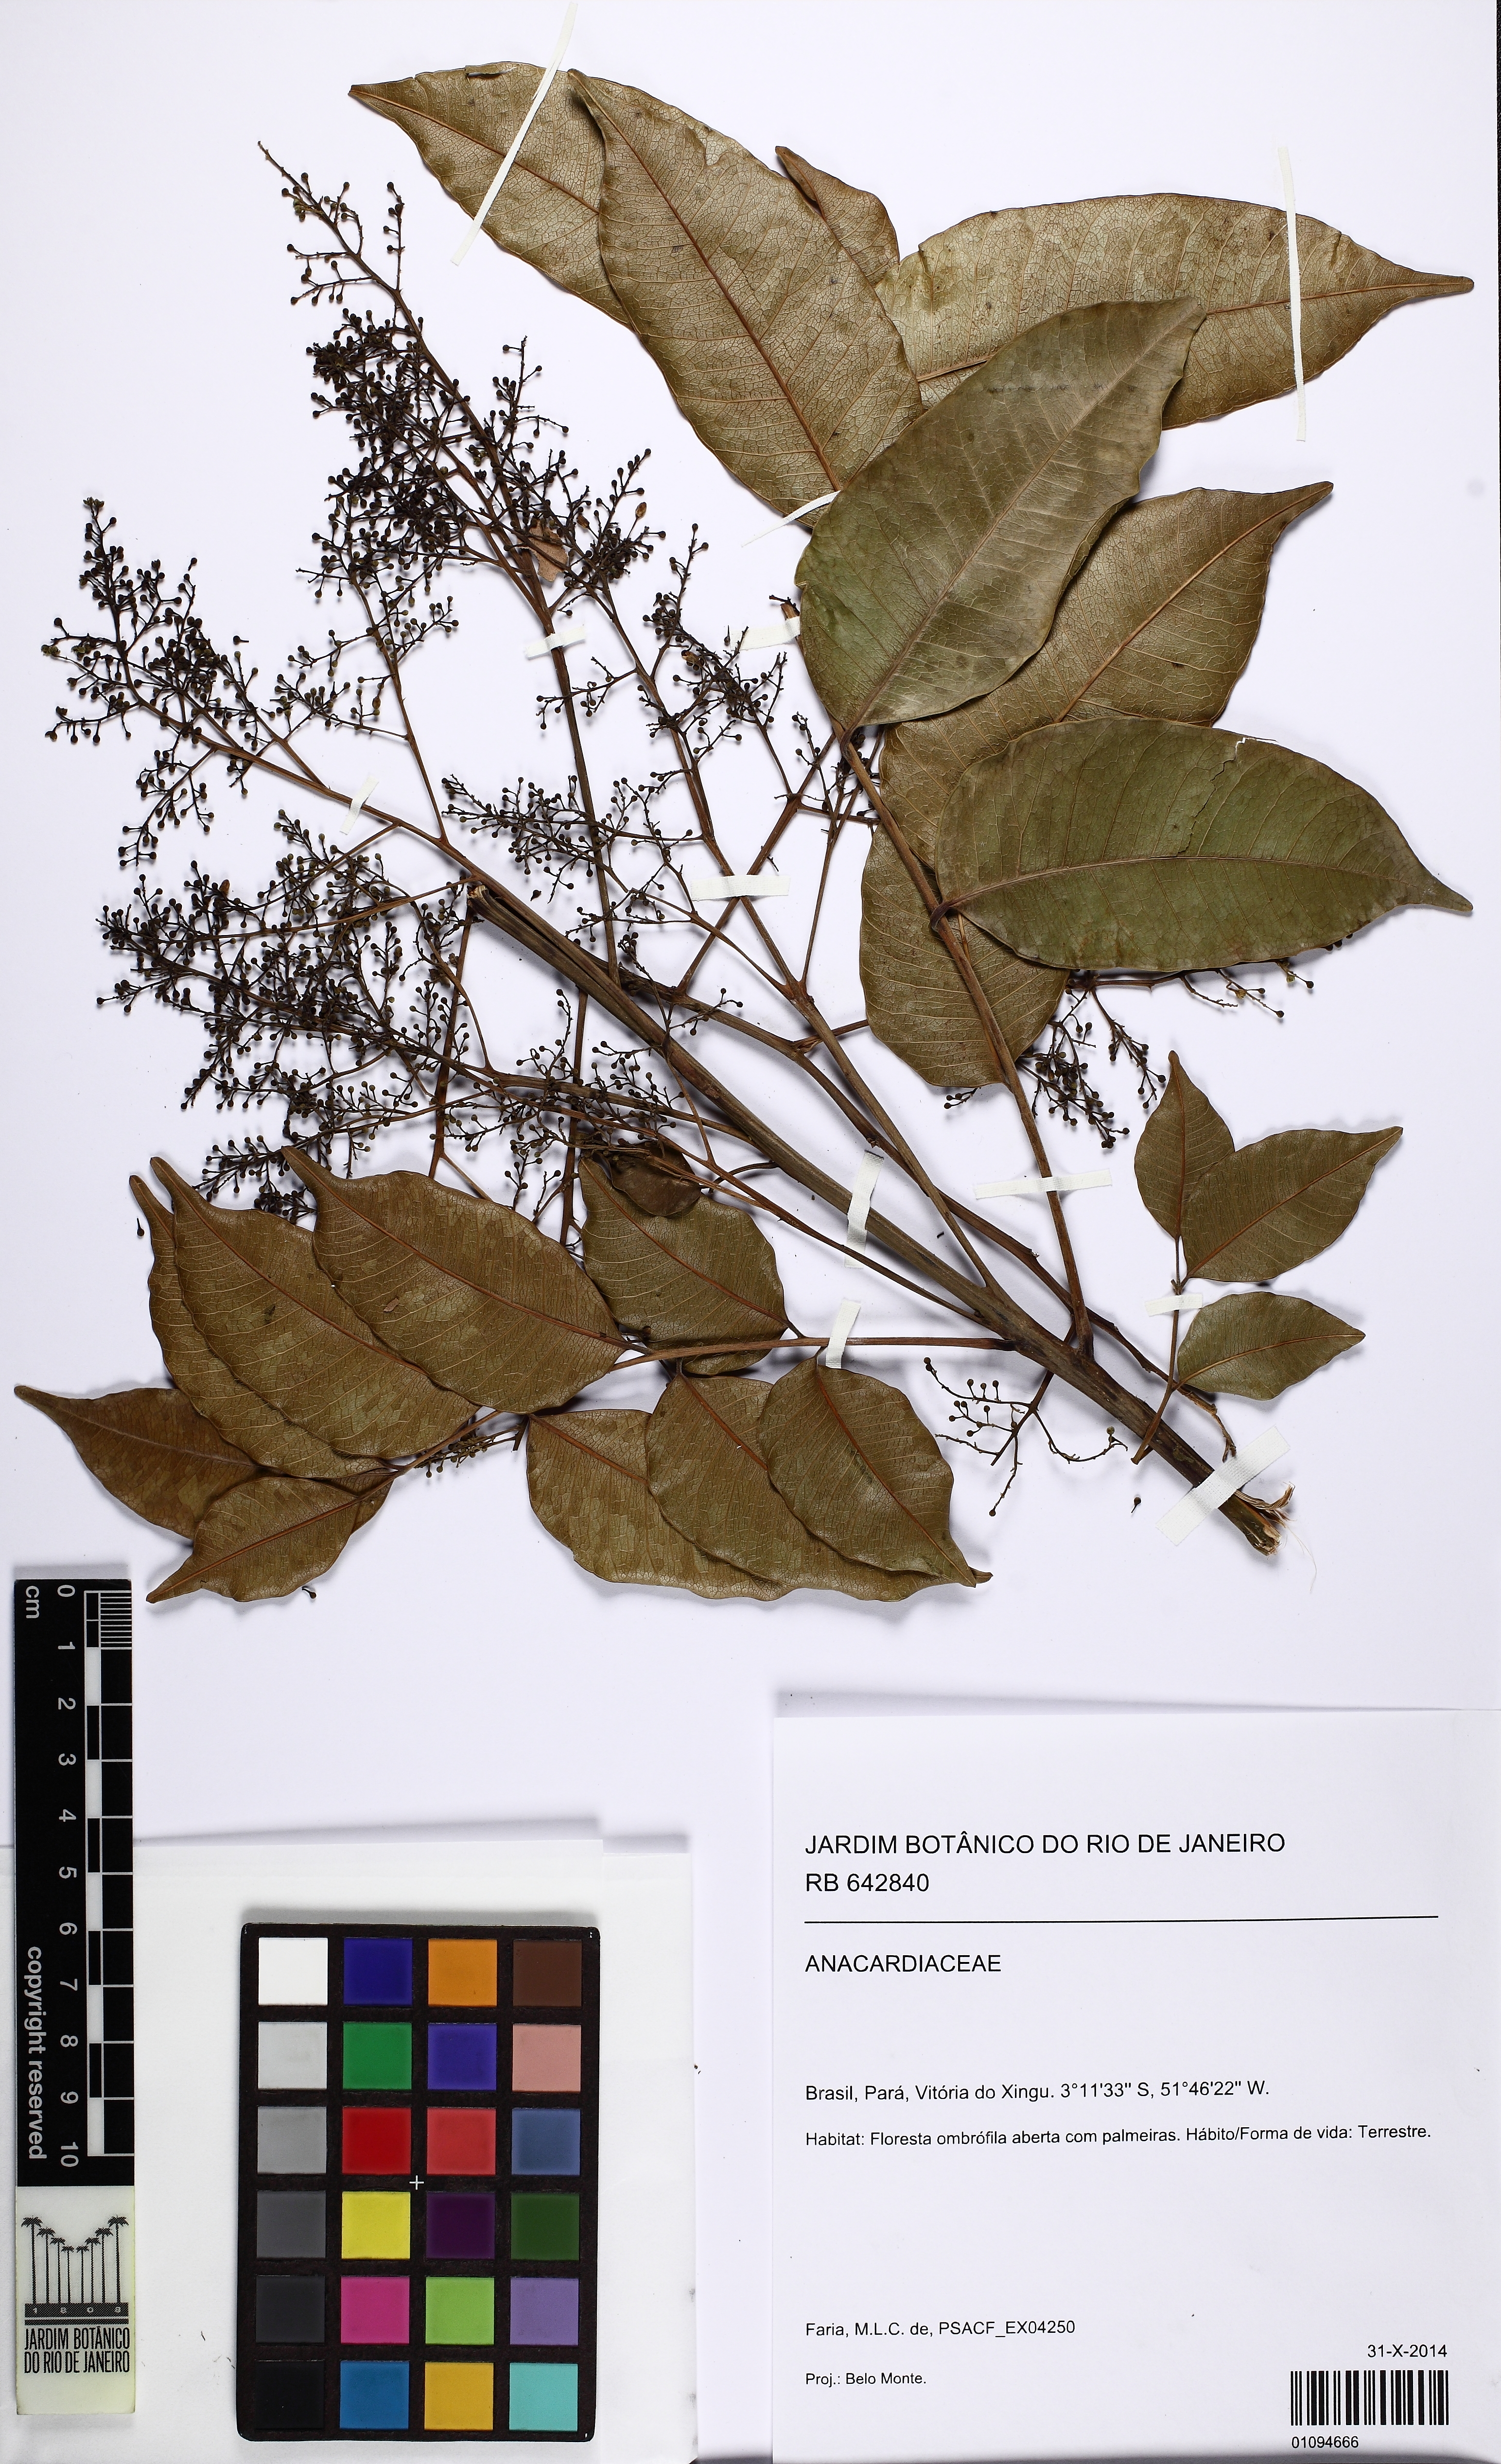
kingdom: Plantae
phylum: Tracheophyta
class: Magnoliopsida
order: Sapindales
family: Anacardiaceae
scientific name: Anacardiaceae
